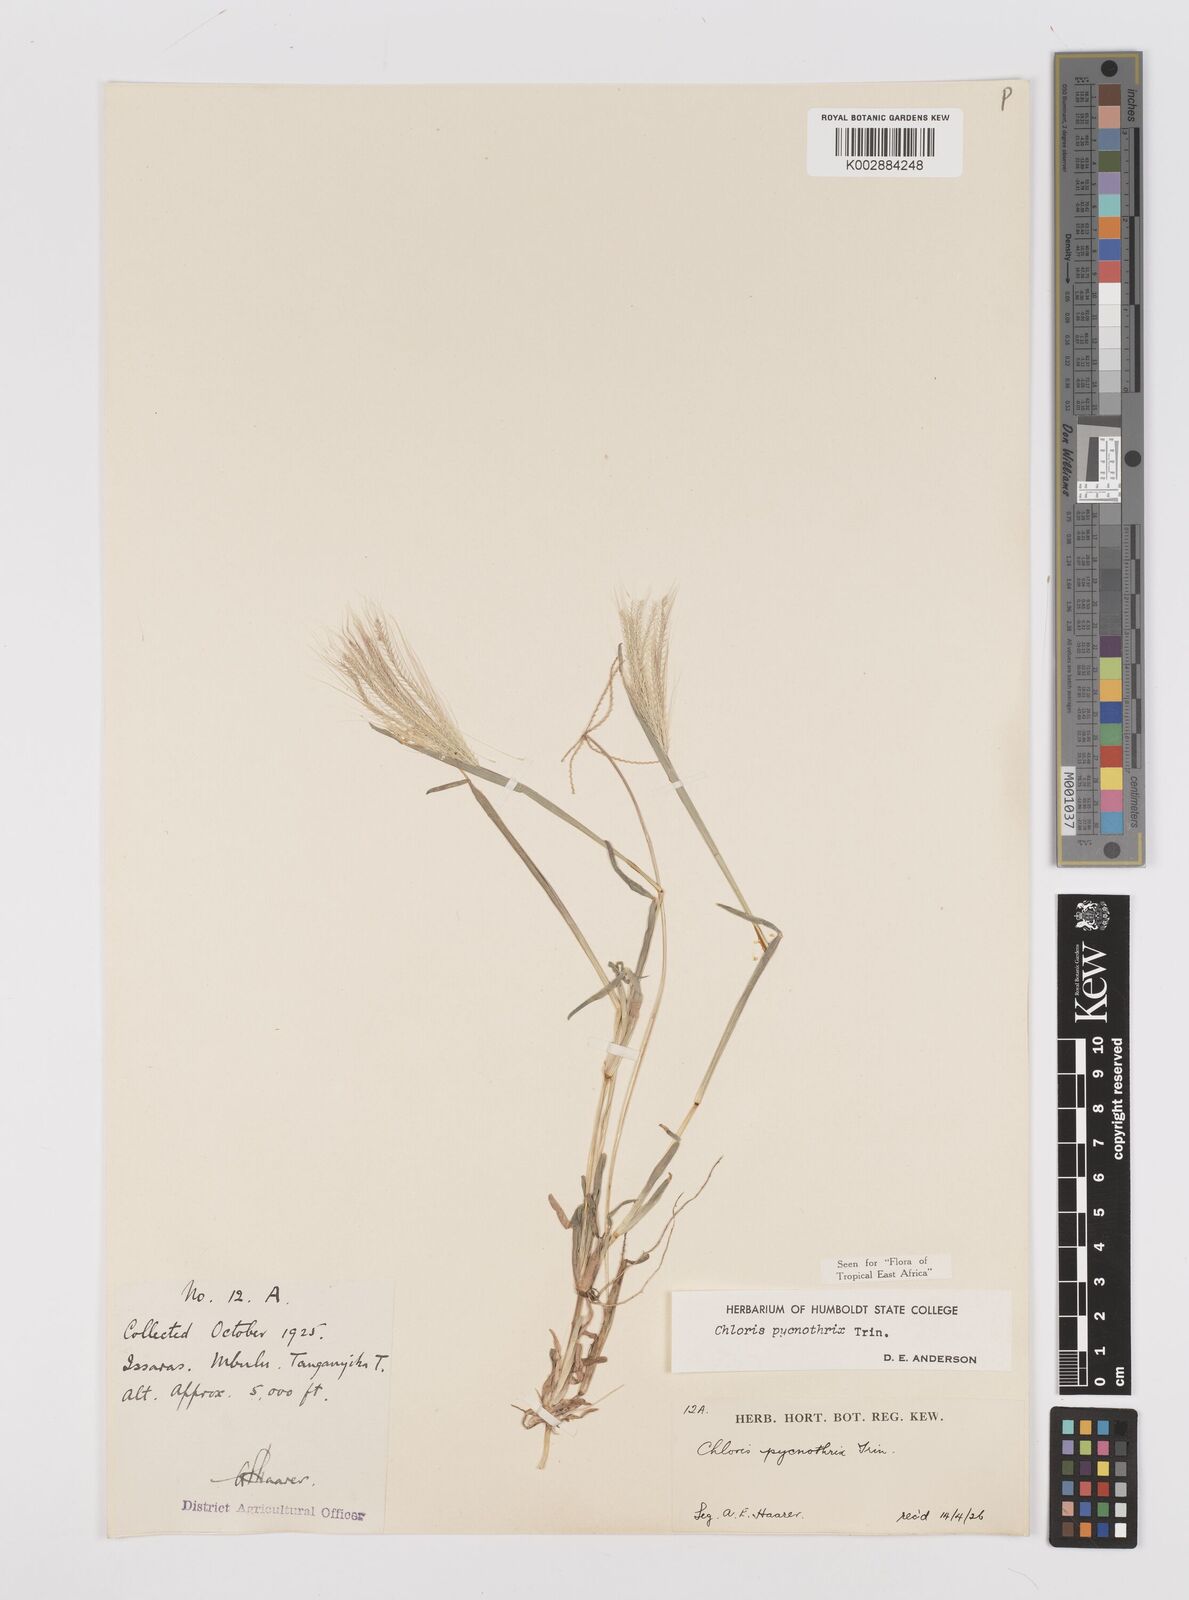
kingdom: Plantae
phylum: Tracheophyta
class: Liliopsida
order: Poales
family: Poaceae
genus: Chloris
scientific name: Chloris pycnothrix
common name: Spiderweb chloris
